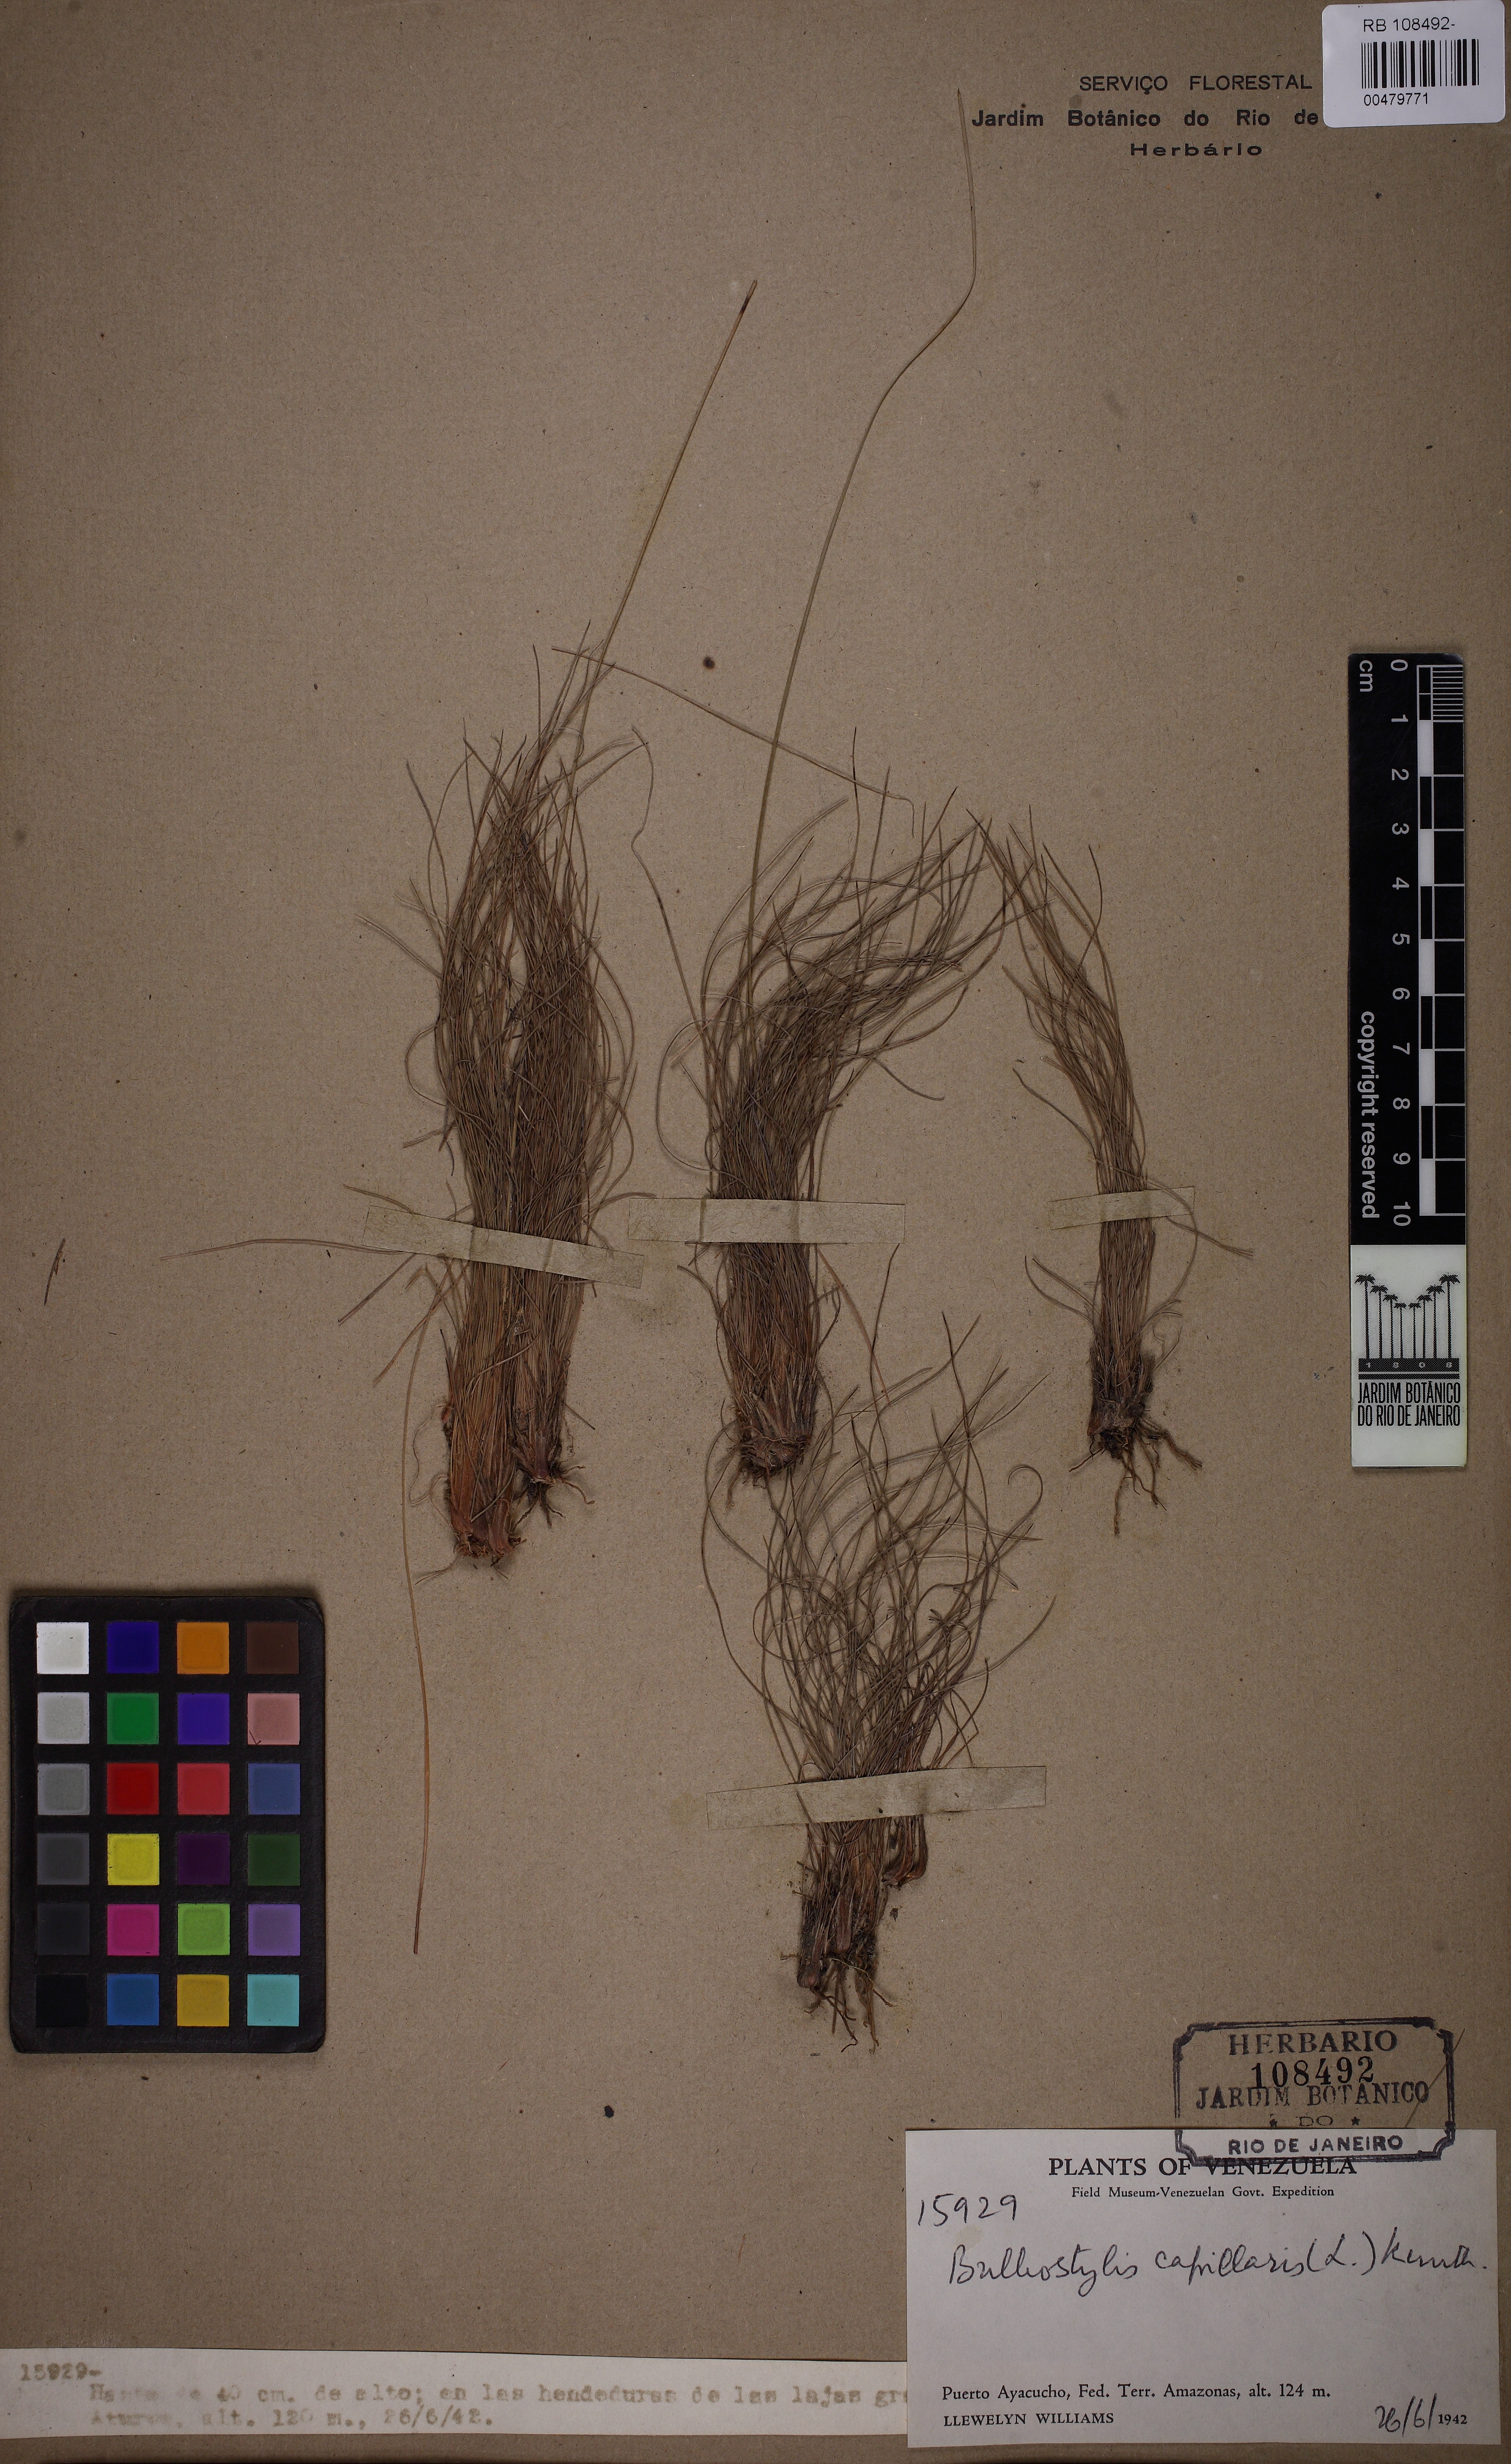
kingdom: Plantae
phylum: Tracheophyta
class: Liliopsida
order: Poales
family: Cyperaceae
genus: Bulbostylis
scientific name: Bulbostylis capillaris
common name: Densetuft hairsedge
